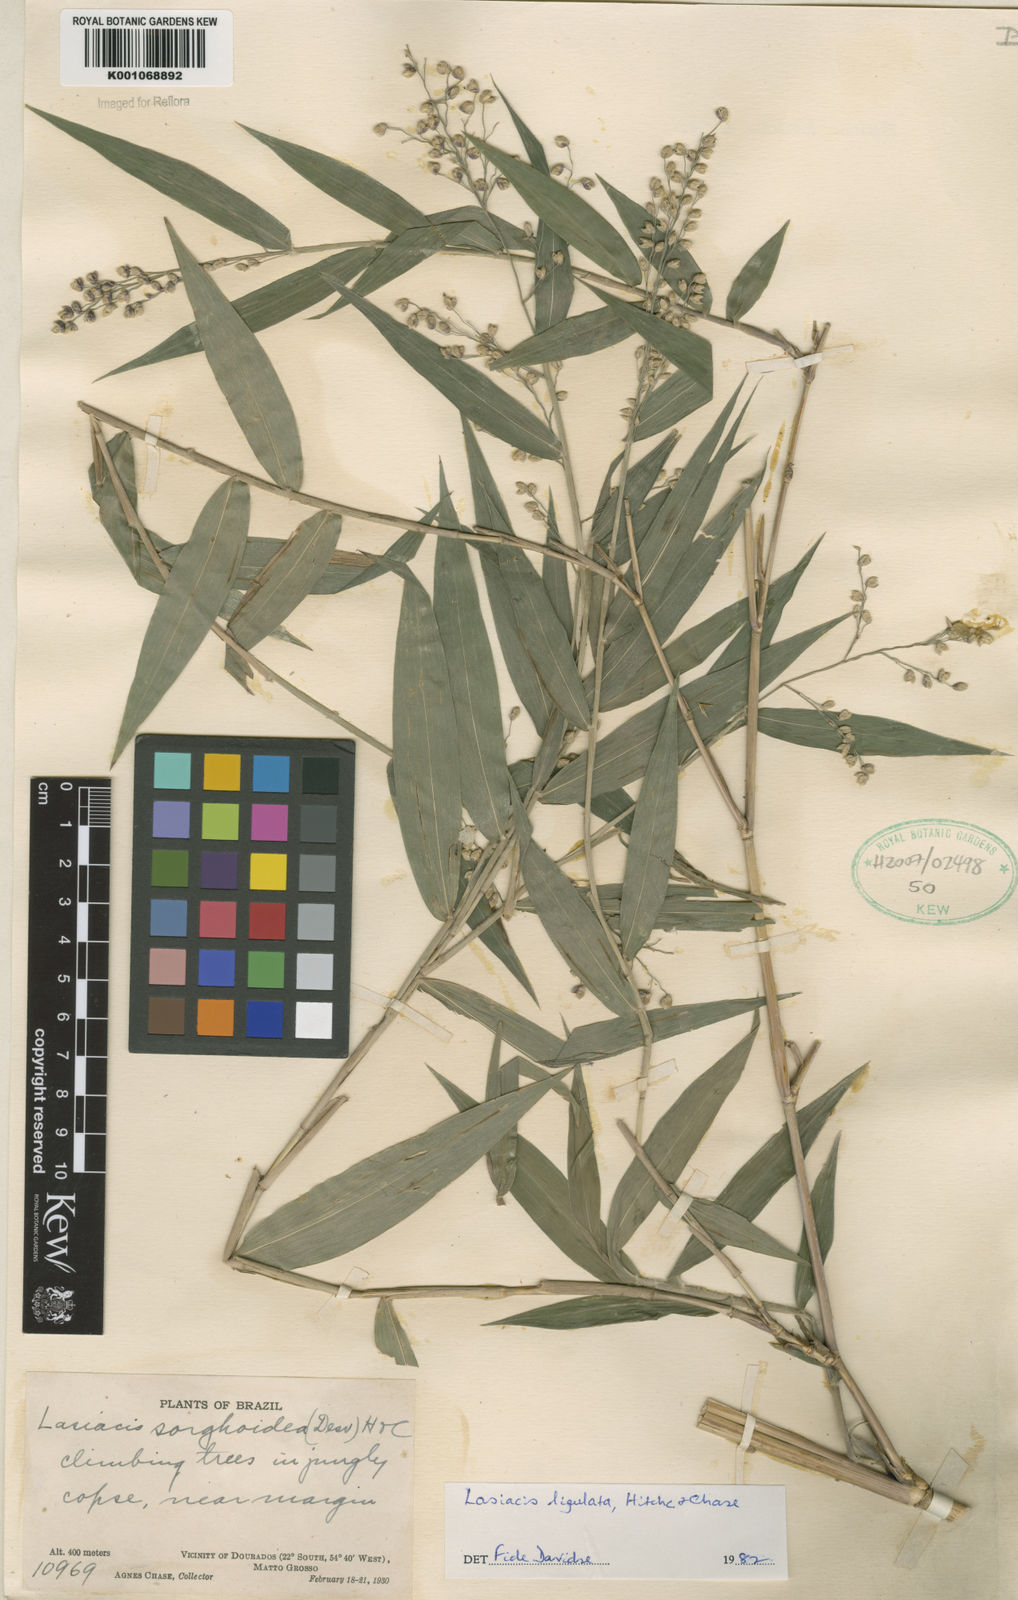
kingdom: Plantae
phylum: Tracheophyta
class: Liliopsida
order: Poales
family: Poaceae
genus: Lasiacis
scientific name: Lasiacis ligulata
